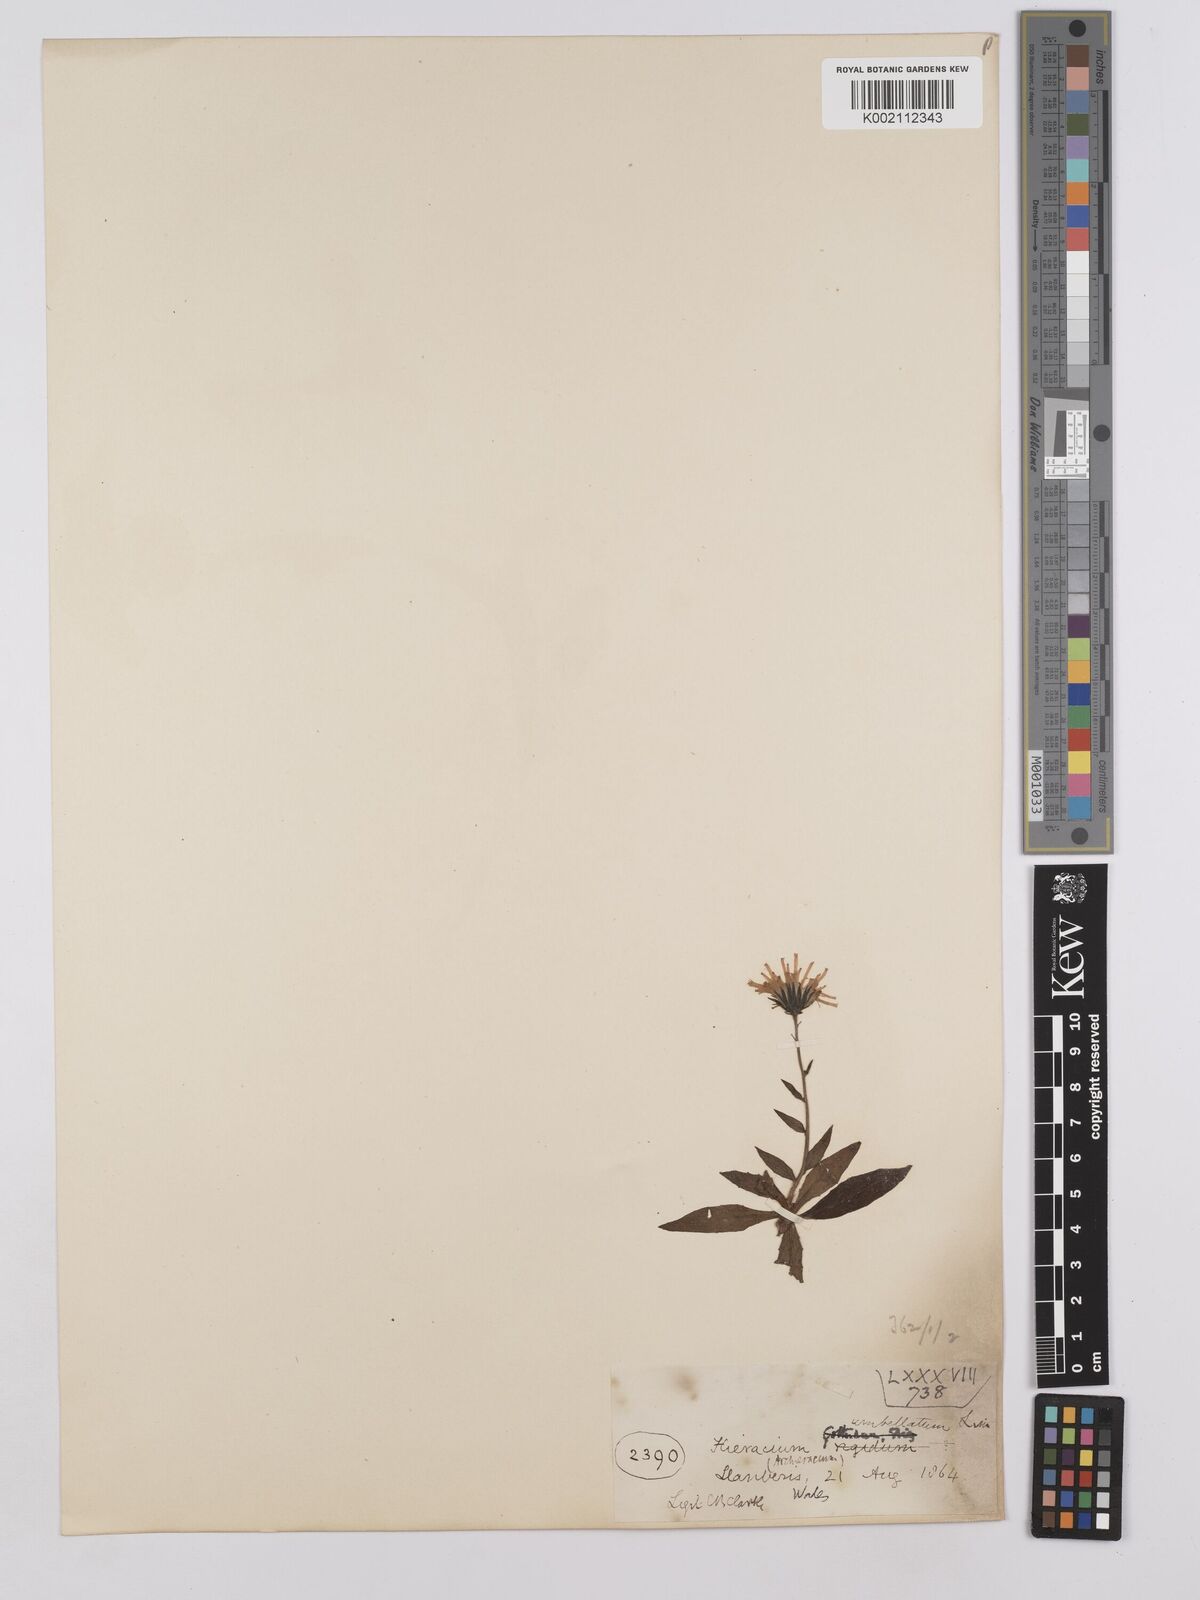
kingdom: Plantae
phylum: Tracheophyta
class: Magnoliopsida
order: Asterales
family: Asteraceae
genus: Hieracium
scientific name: Hieracium umbellatum
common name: Northern hawkweed
